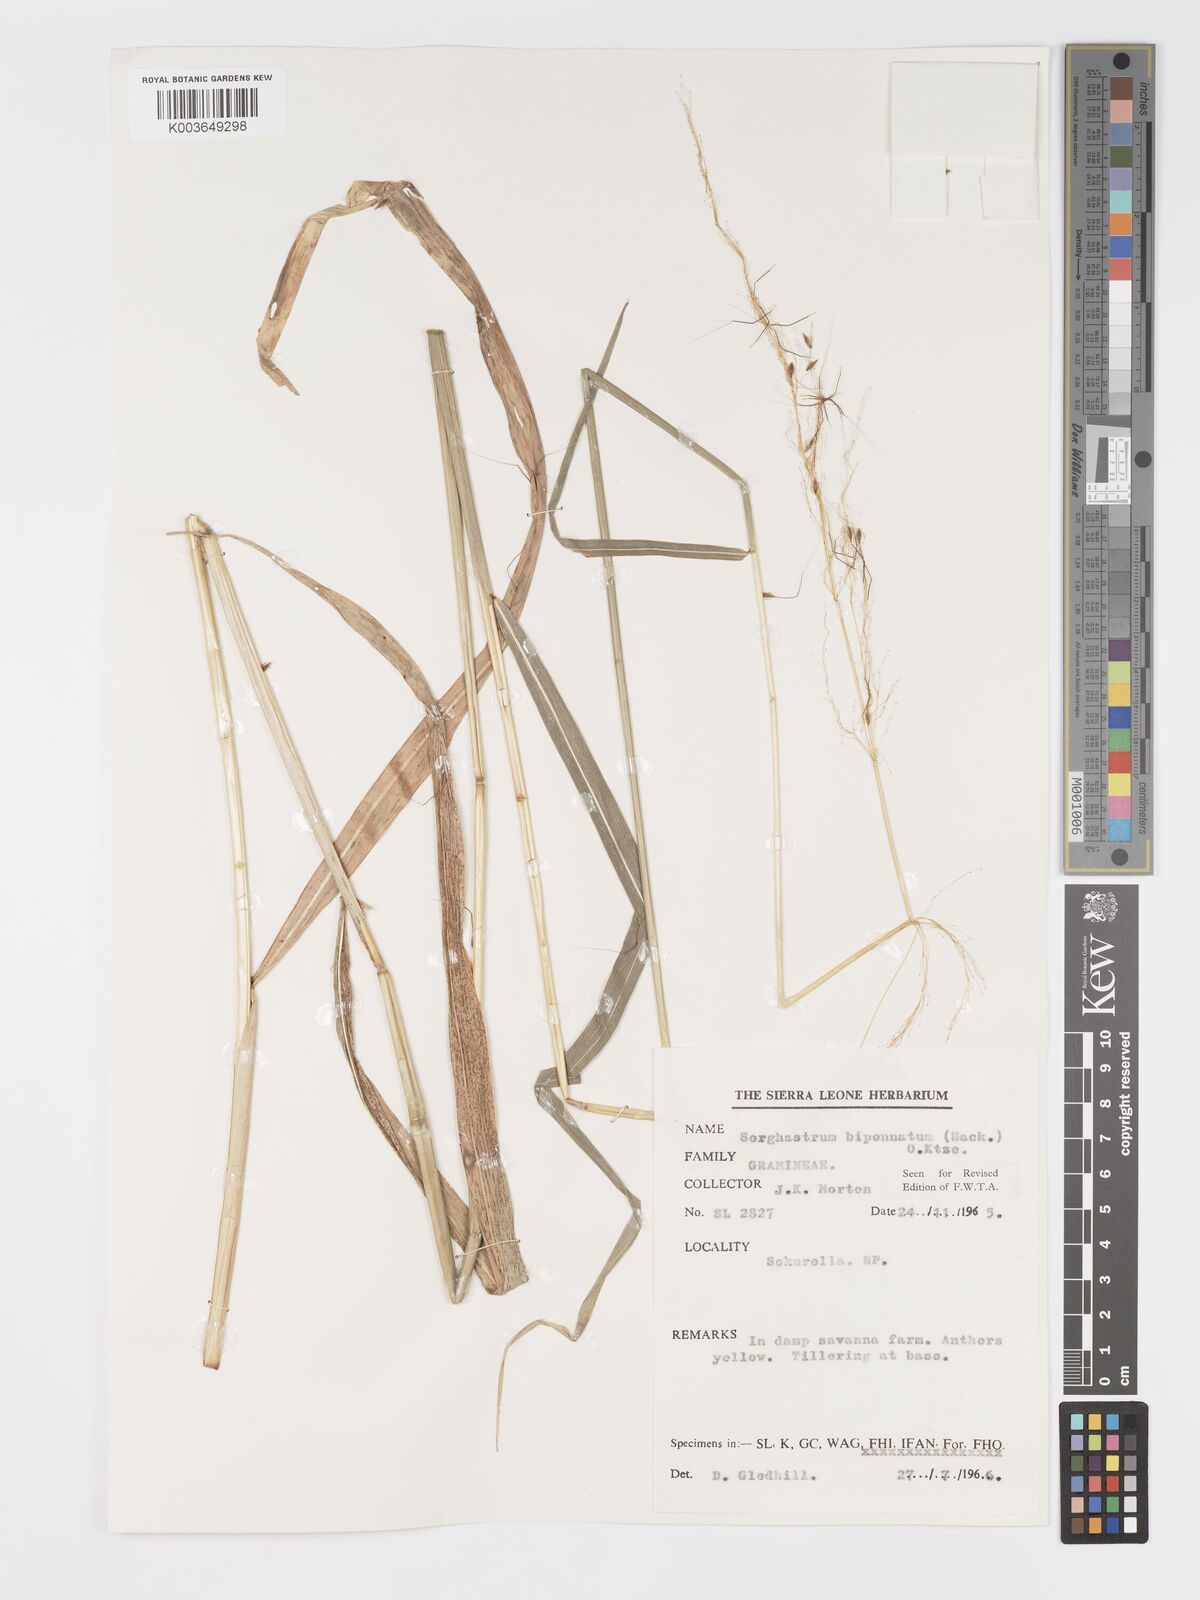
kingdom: Plantae
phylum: Tracheophyta
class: Liliopsida
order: Poales
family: Poaceae
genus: Sorghastrum
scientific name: Sorghastrum incompletum
